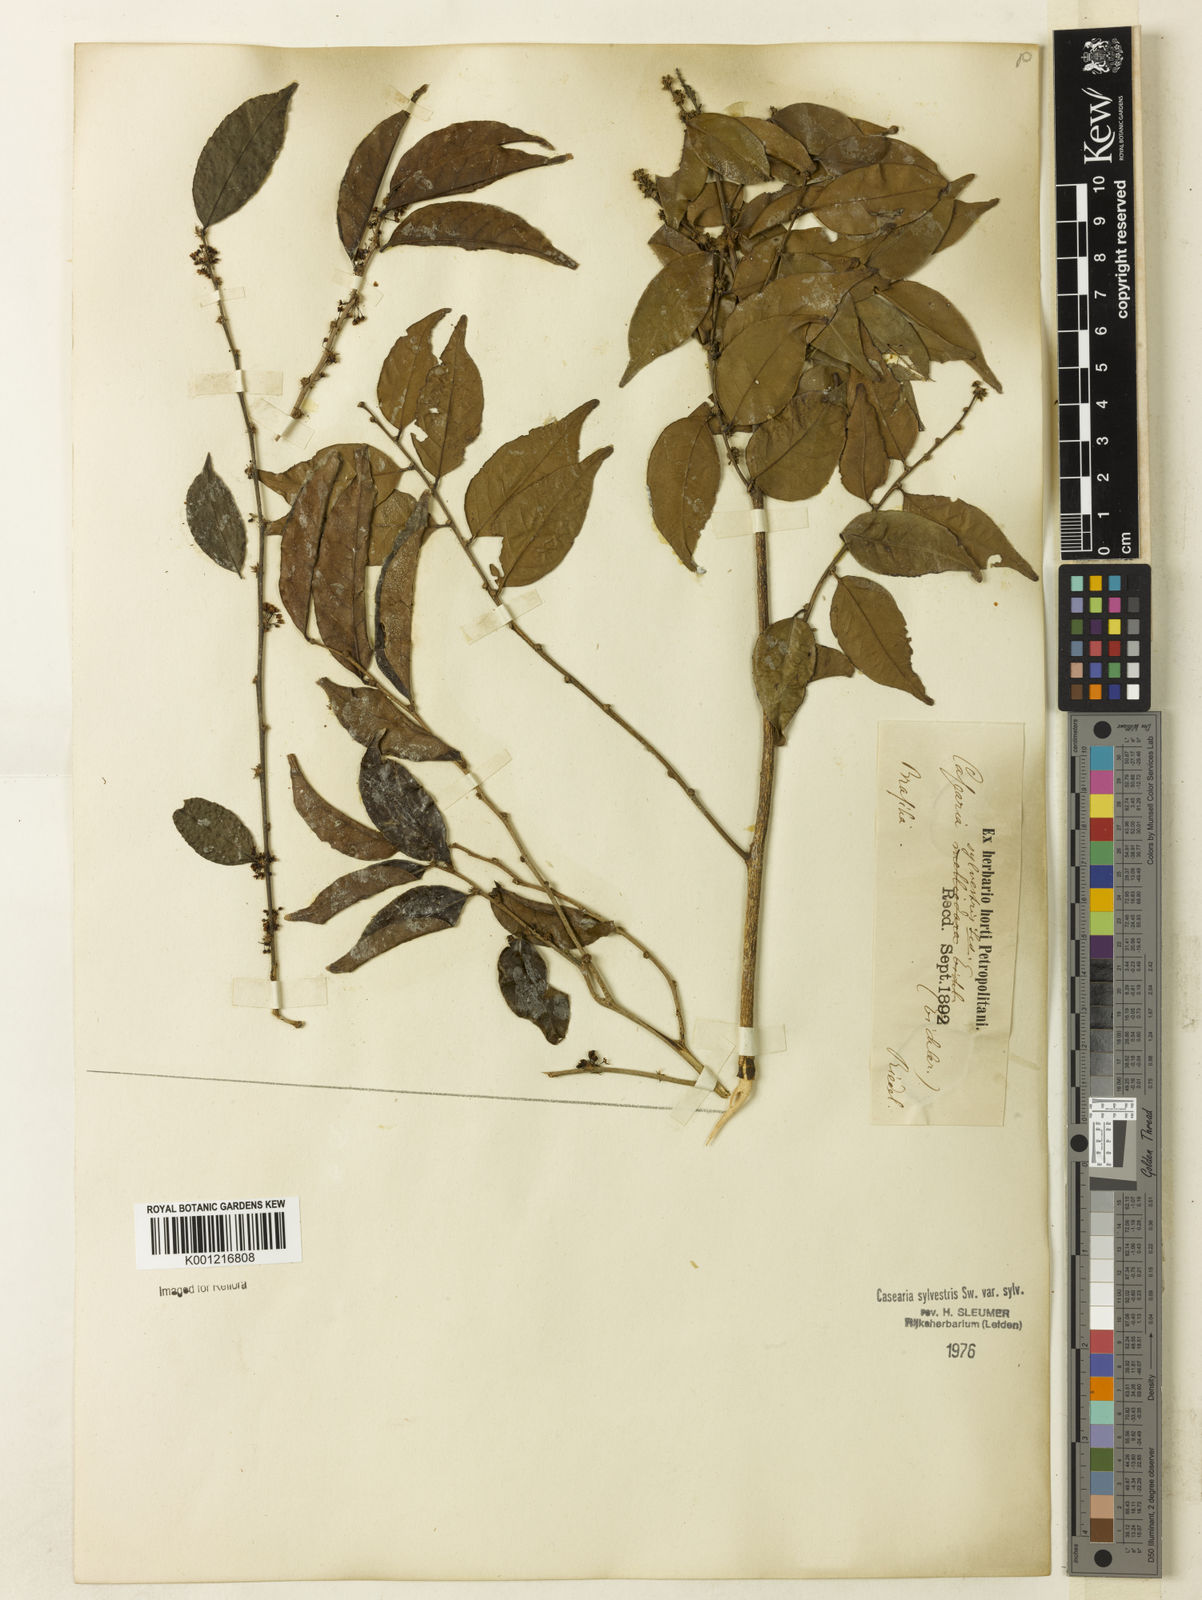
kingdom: Plantae
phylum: Tracheophyta
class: Magnoliopsida
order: Malpighiales
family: Salicaceae
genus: Casearia
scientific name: Casearia sylvestris
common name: Wild sage
